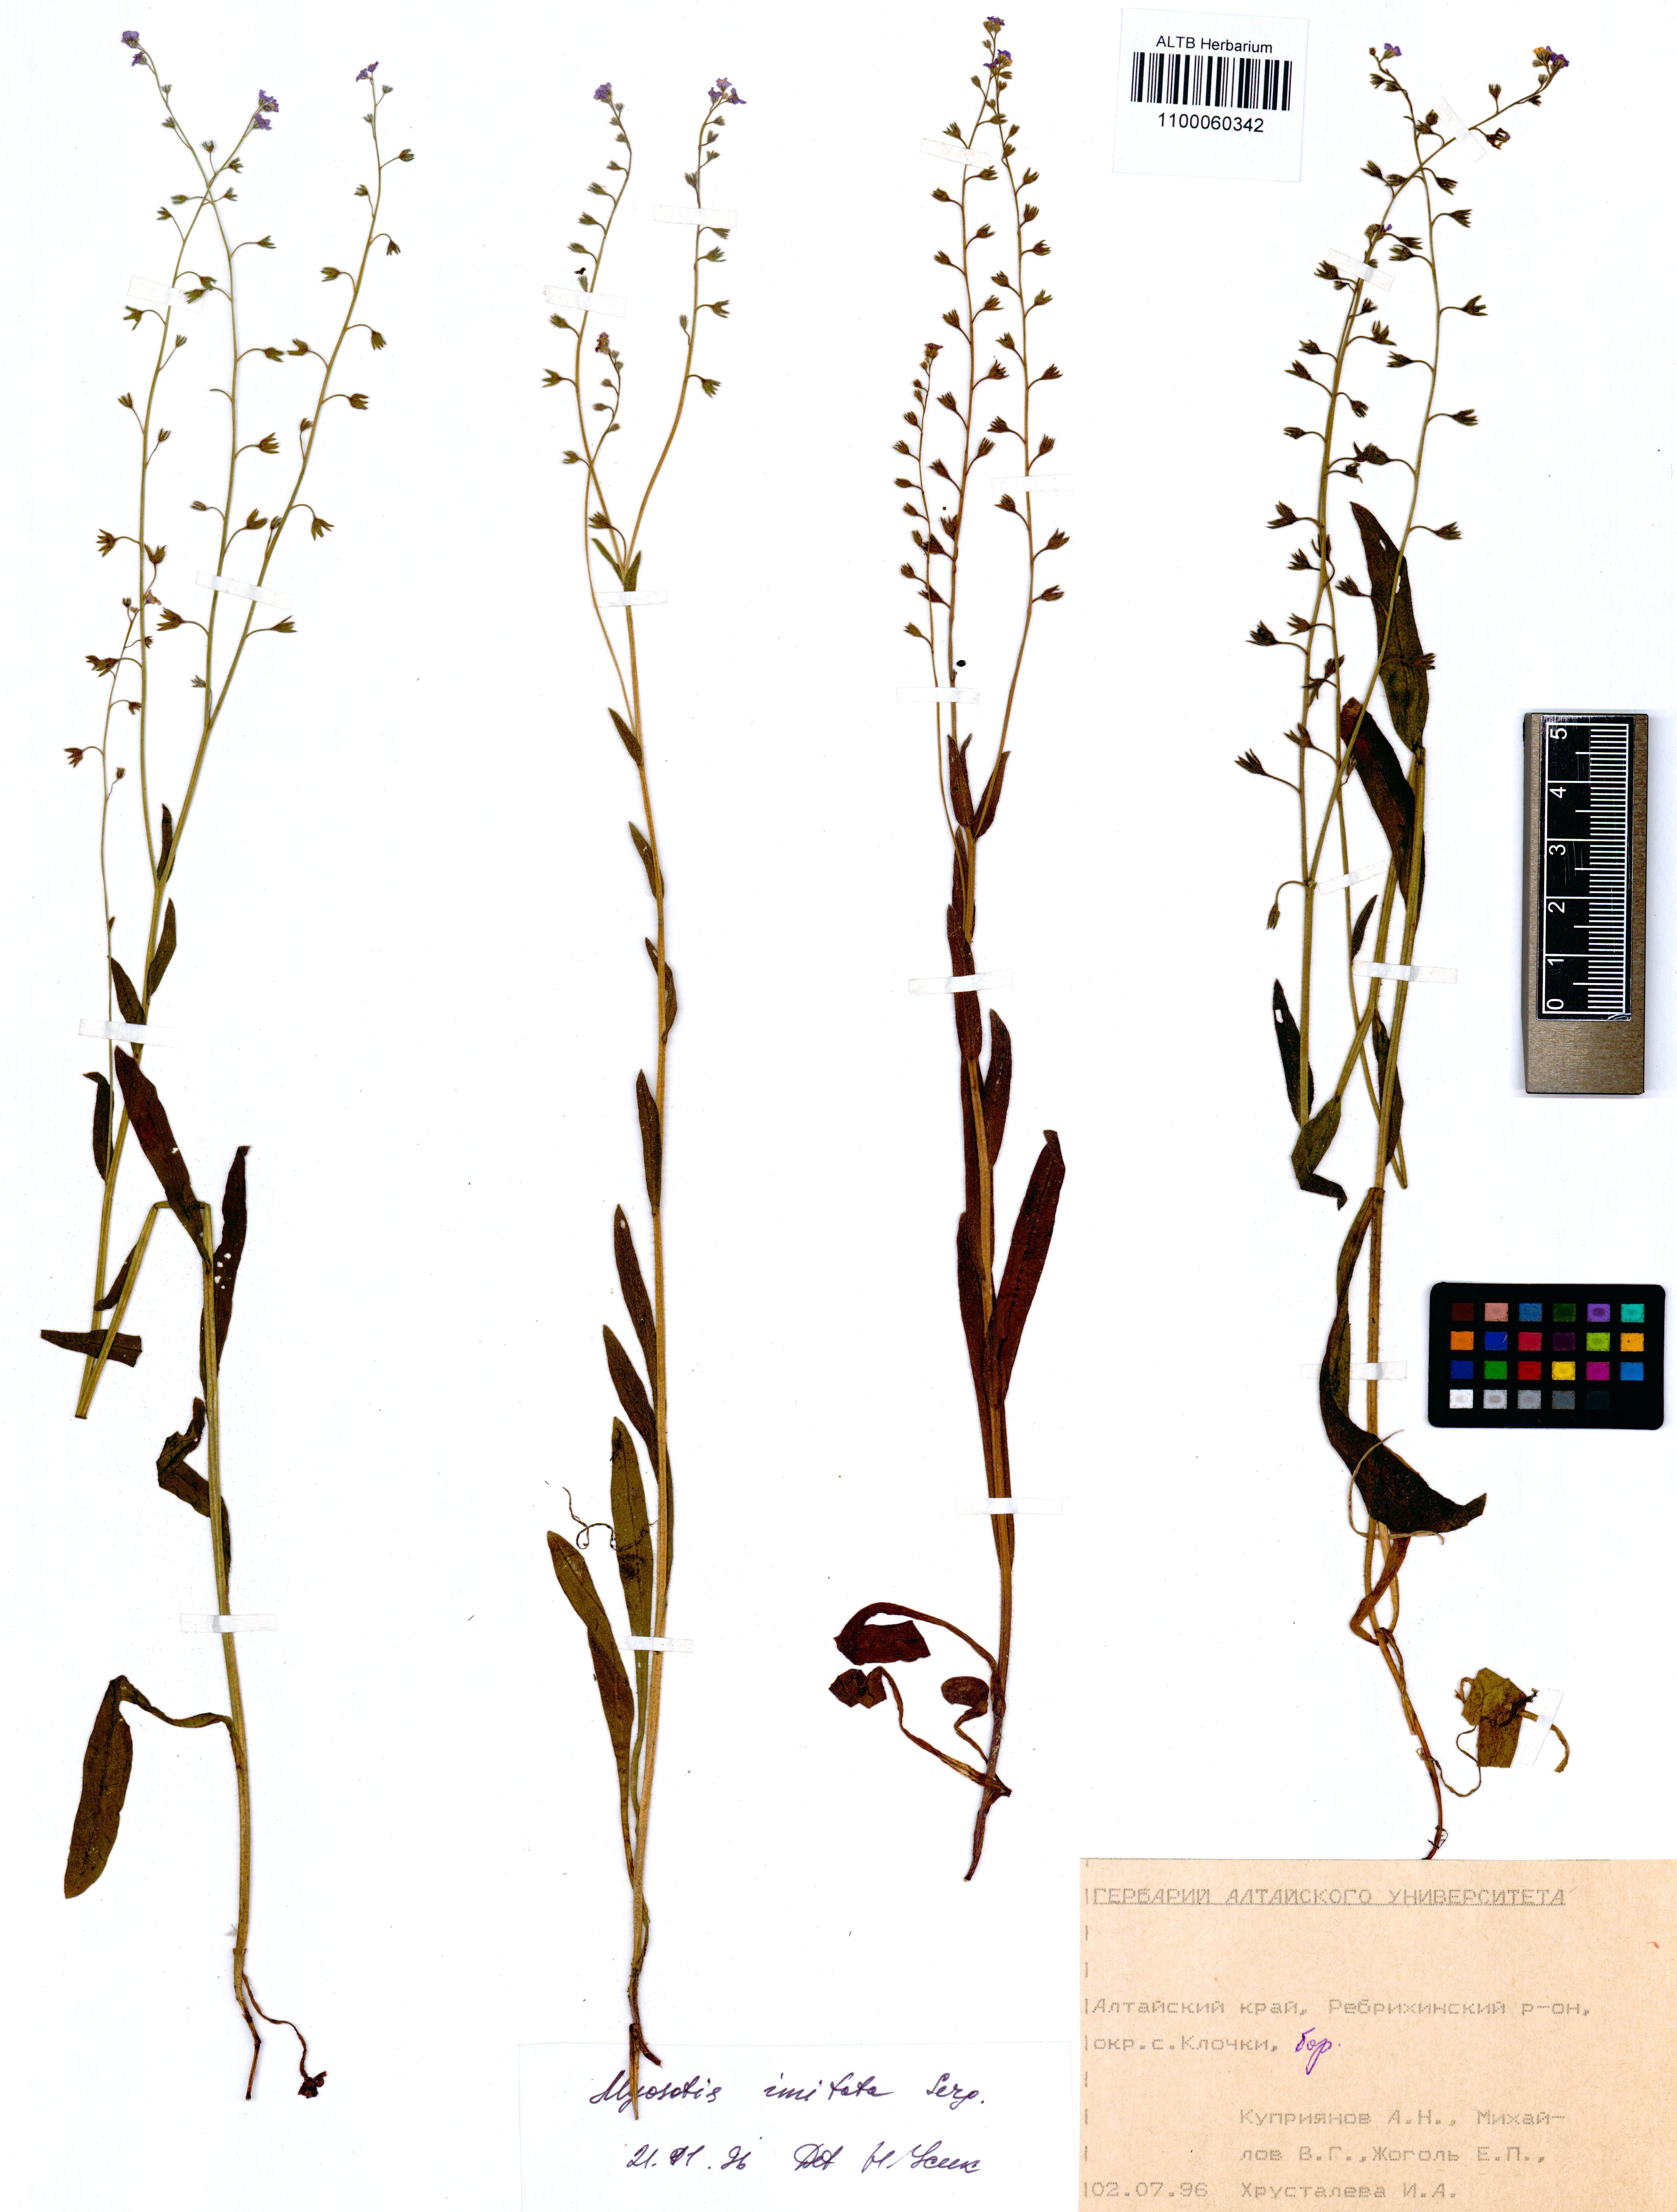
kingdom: Plantae
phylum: Tracheophyta
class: Magnoliopsida
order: Boraginales
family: Boraginaceae
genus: Myosotis
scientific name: Myosotis imitata
